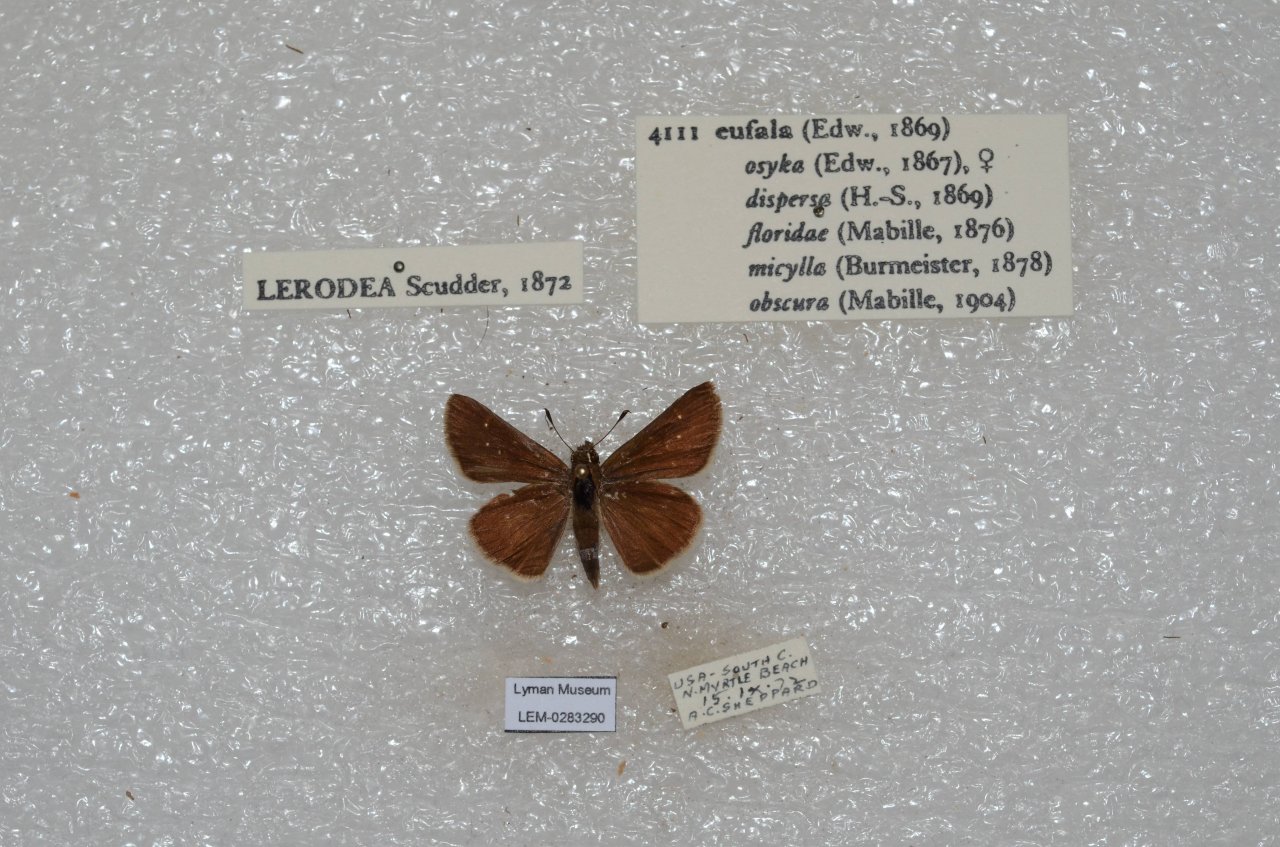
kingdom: Animalia
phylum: Arthropoda
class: Insecta
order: Lepidoptera
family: Hesperiidae
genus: Lerodea
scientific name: Lerodea eufala
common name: Eufala Skipper
